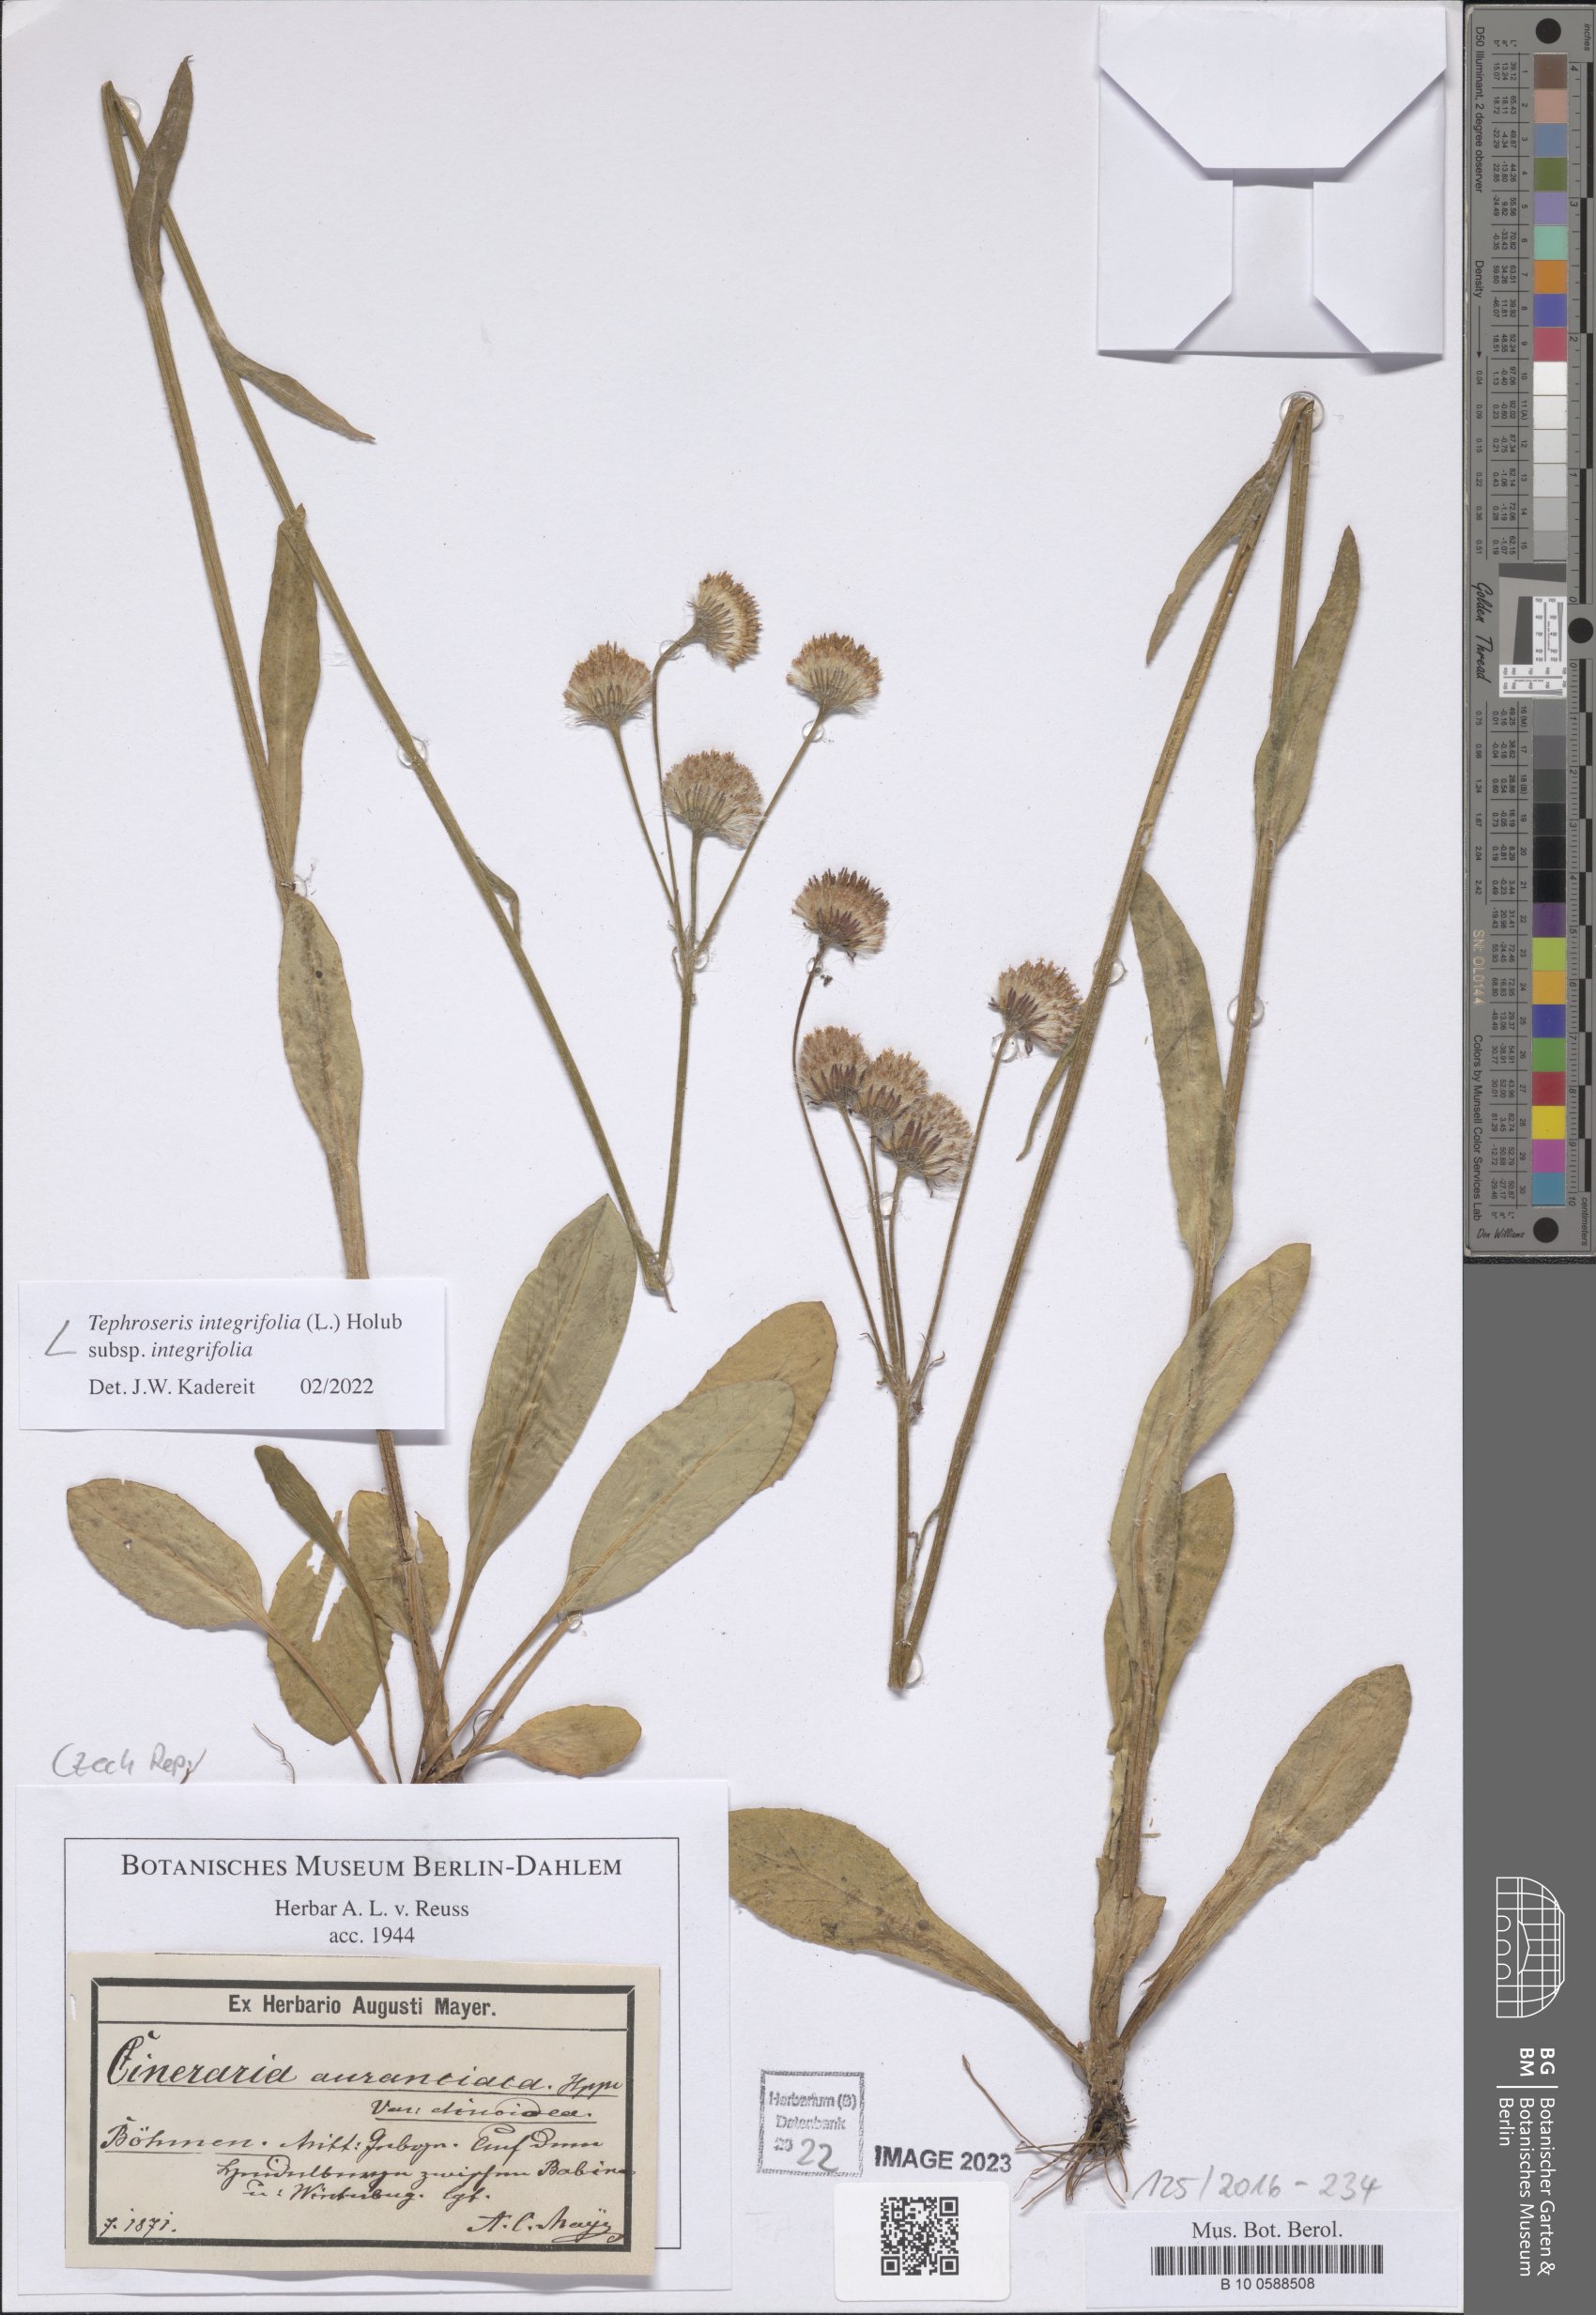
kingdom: Plantae
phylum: Tracheophyta
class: Magnoliopsida
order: Asterales
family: Asteraceae
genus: Tephroseris
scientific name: Tephroseris integrifolia
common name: Field fleawort
